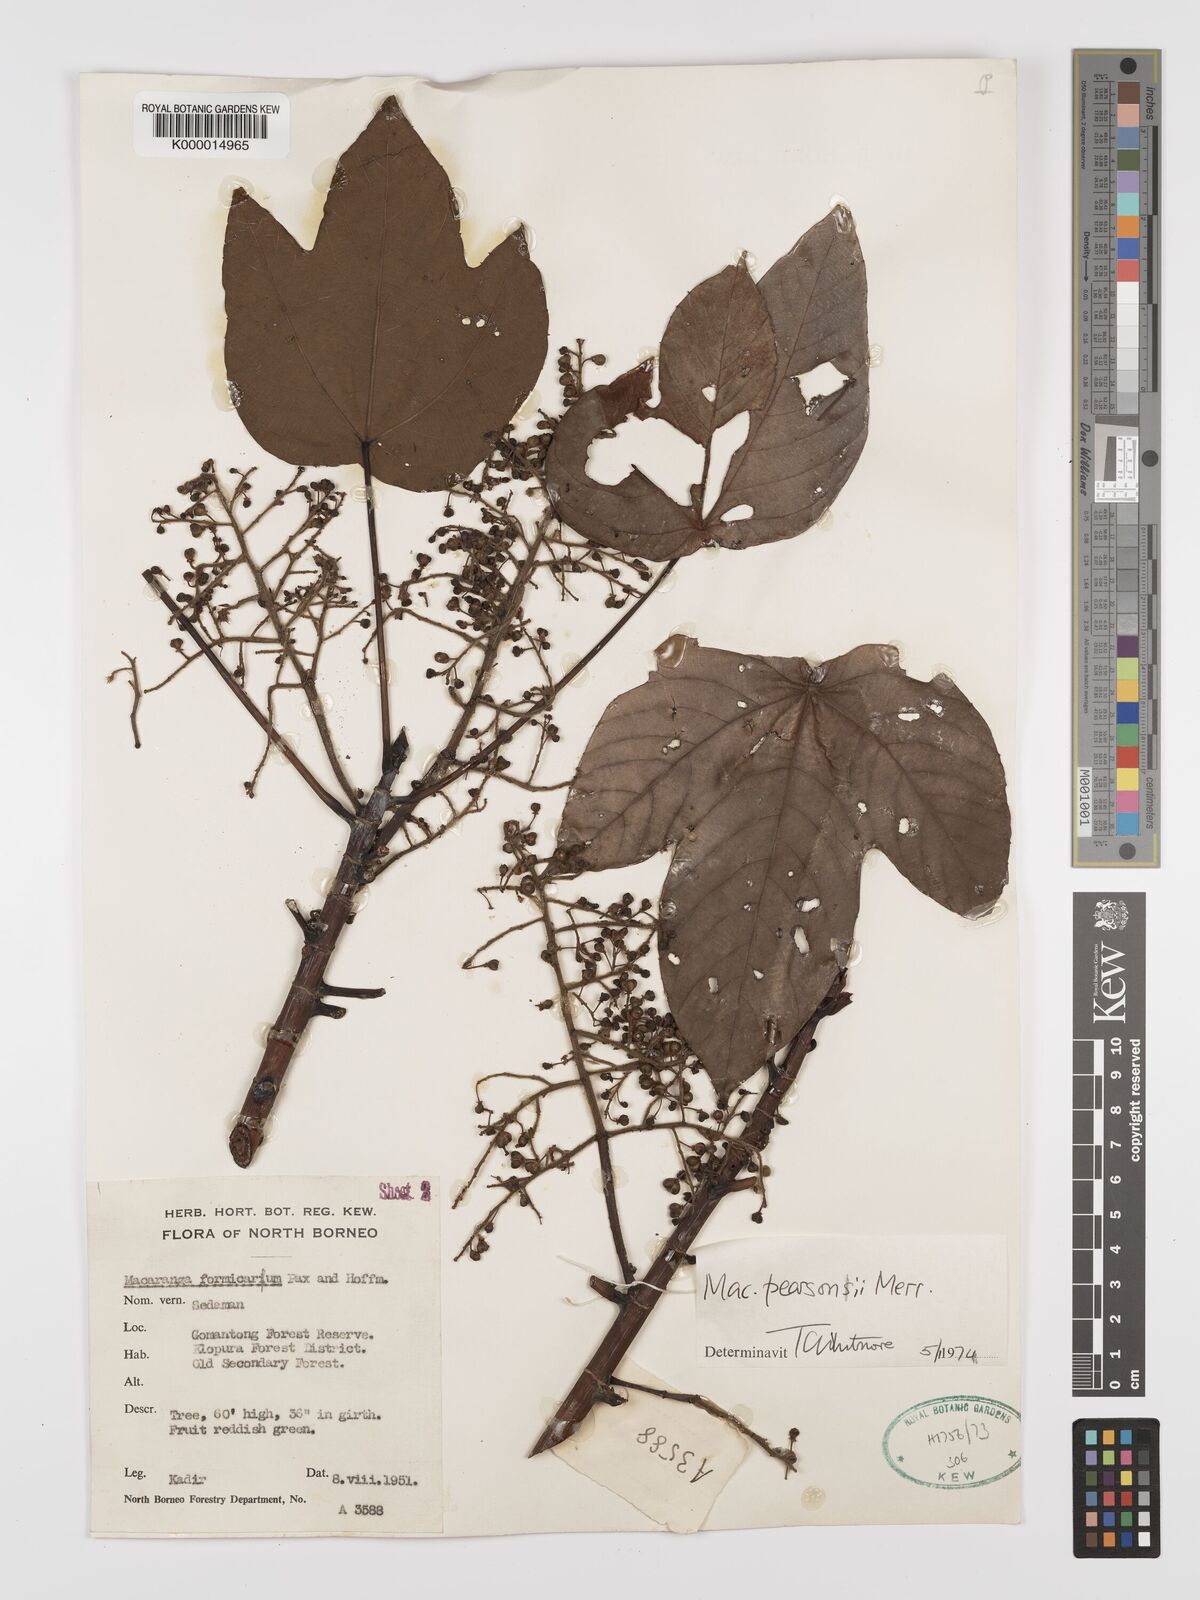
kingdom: Plantae
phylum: Tracheophyta
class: Magnoliopsida
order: Malpighiales
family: Euphorbiaceae
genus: Macaranga
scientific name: Macaranga pearsonii
